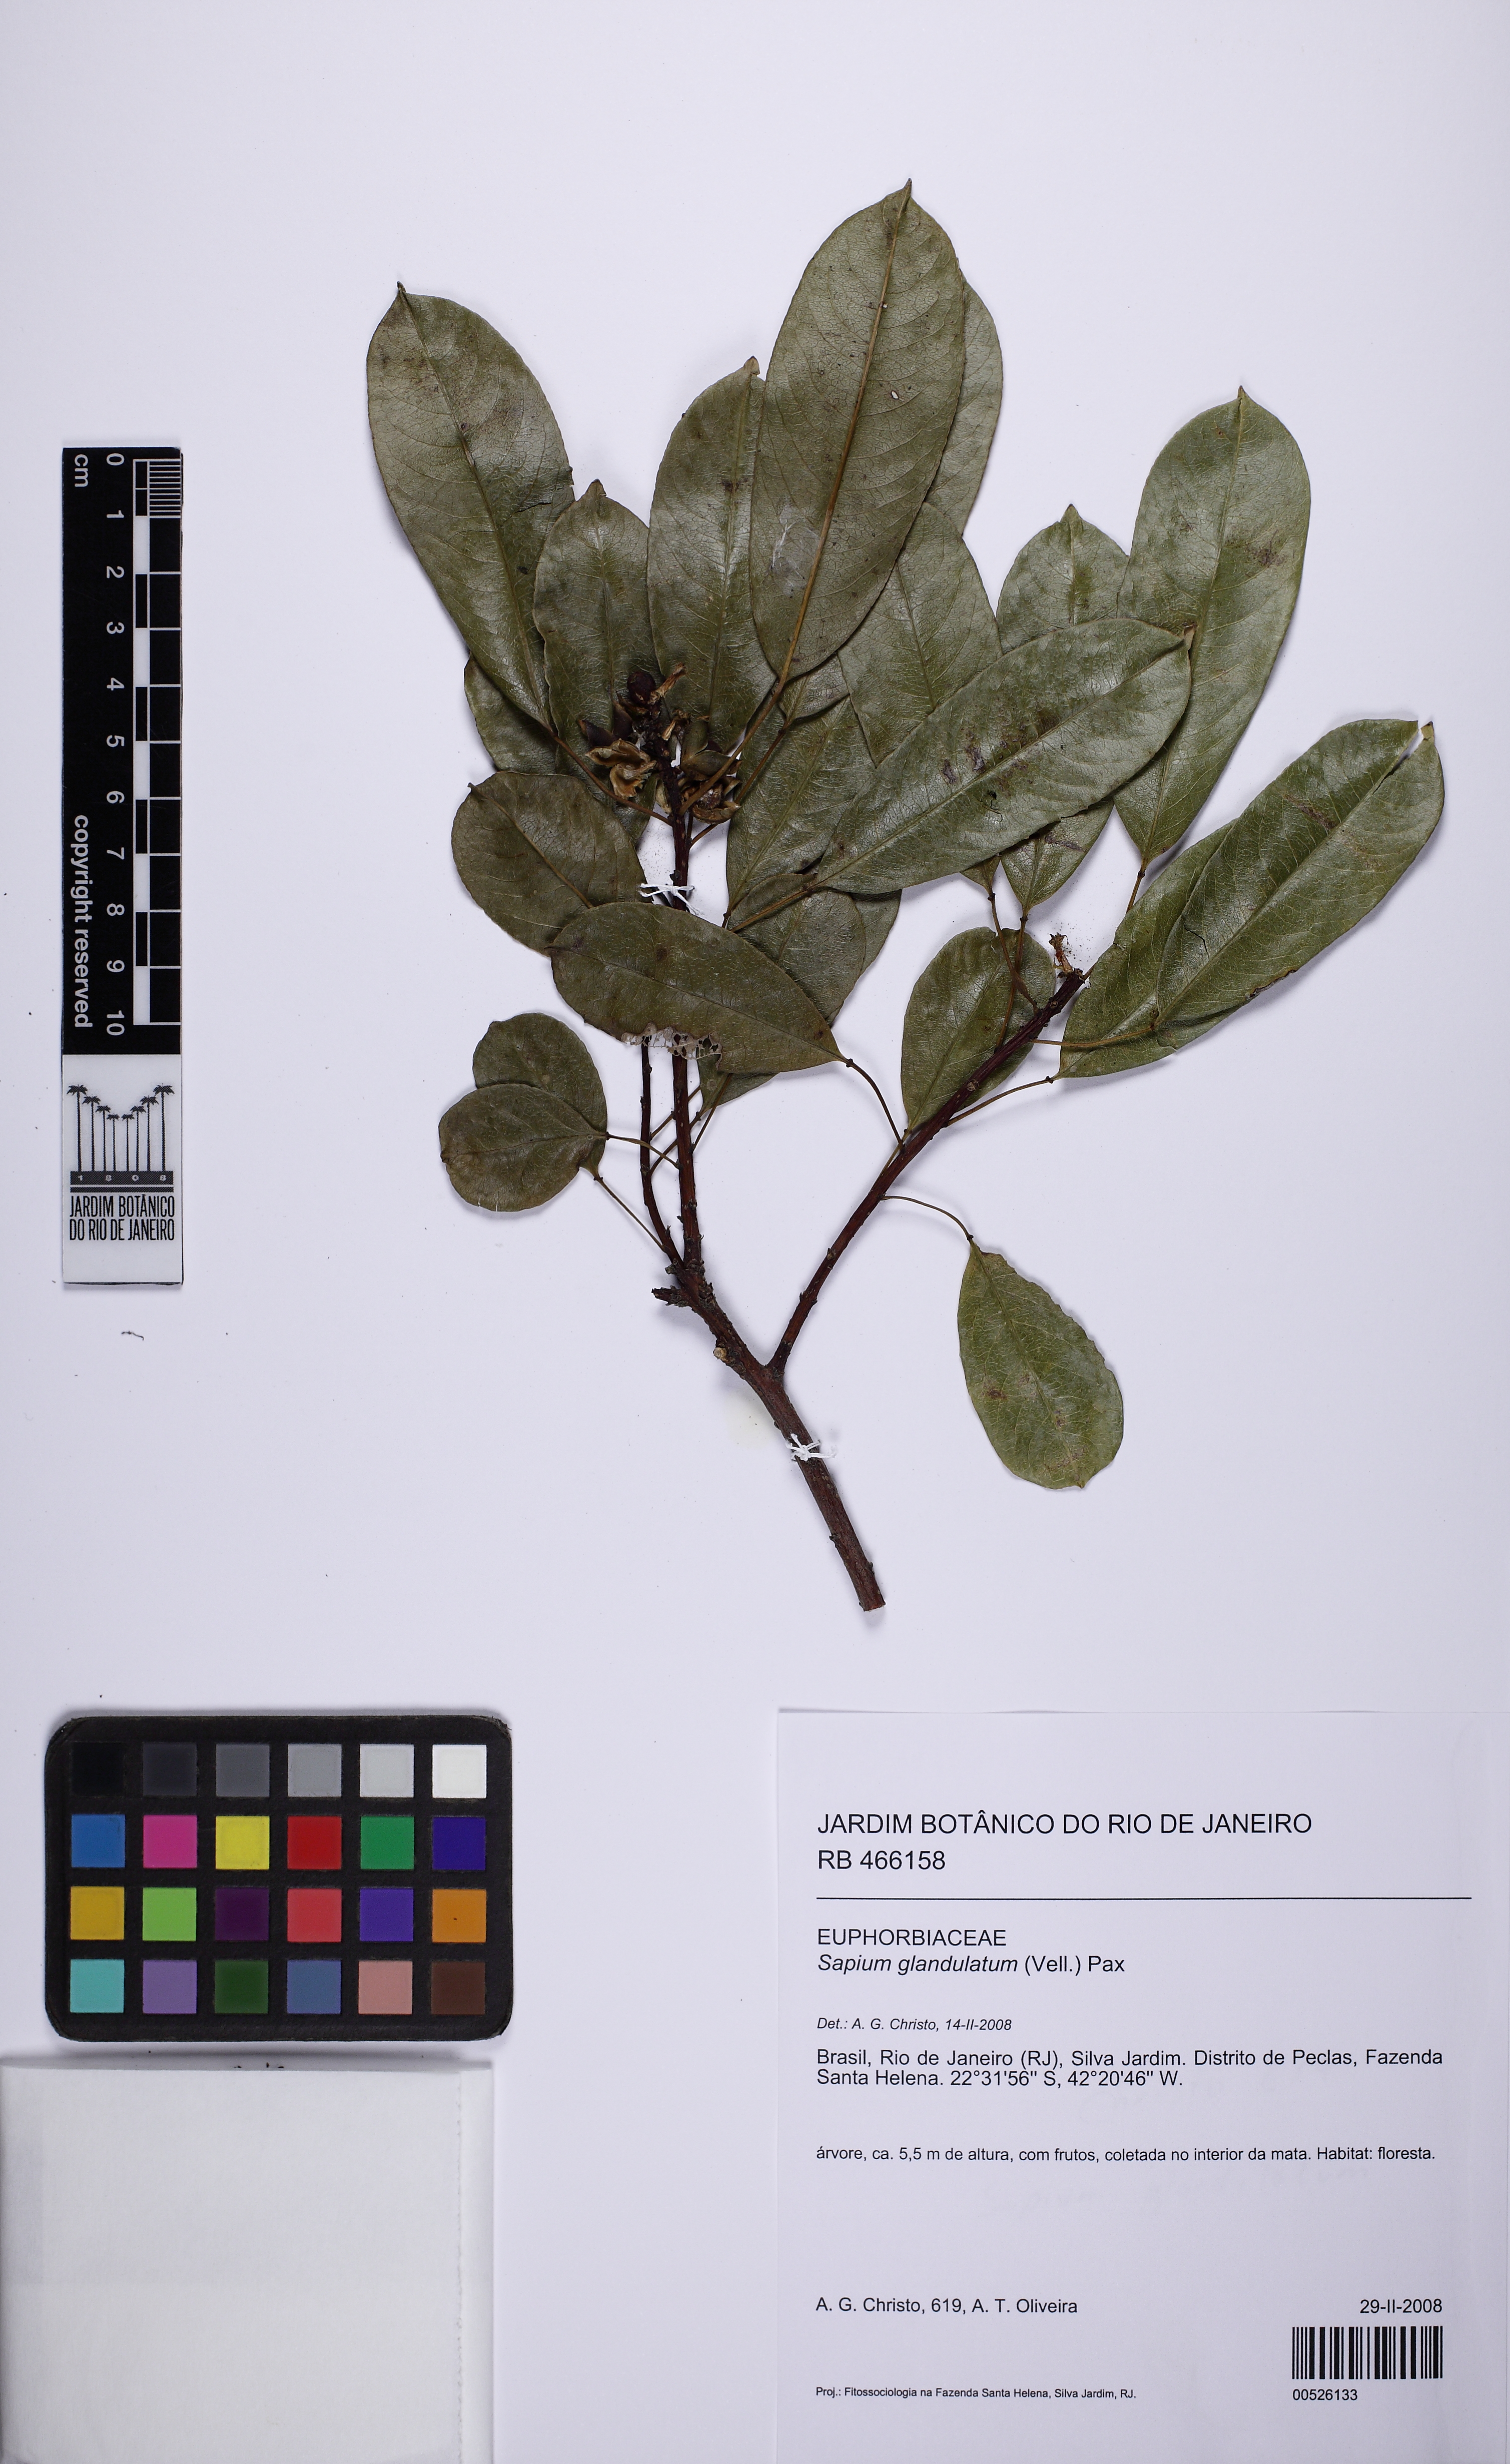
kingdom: Plantae
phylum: Tracheophyta
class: Magnoliopsida
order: Malpighiales
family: Euphorbiaceae
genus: Sapium
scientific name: Sapium glandulosum
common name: Milktree
